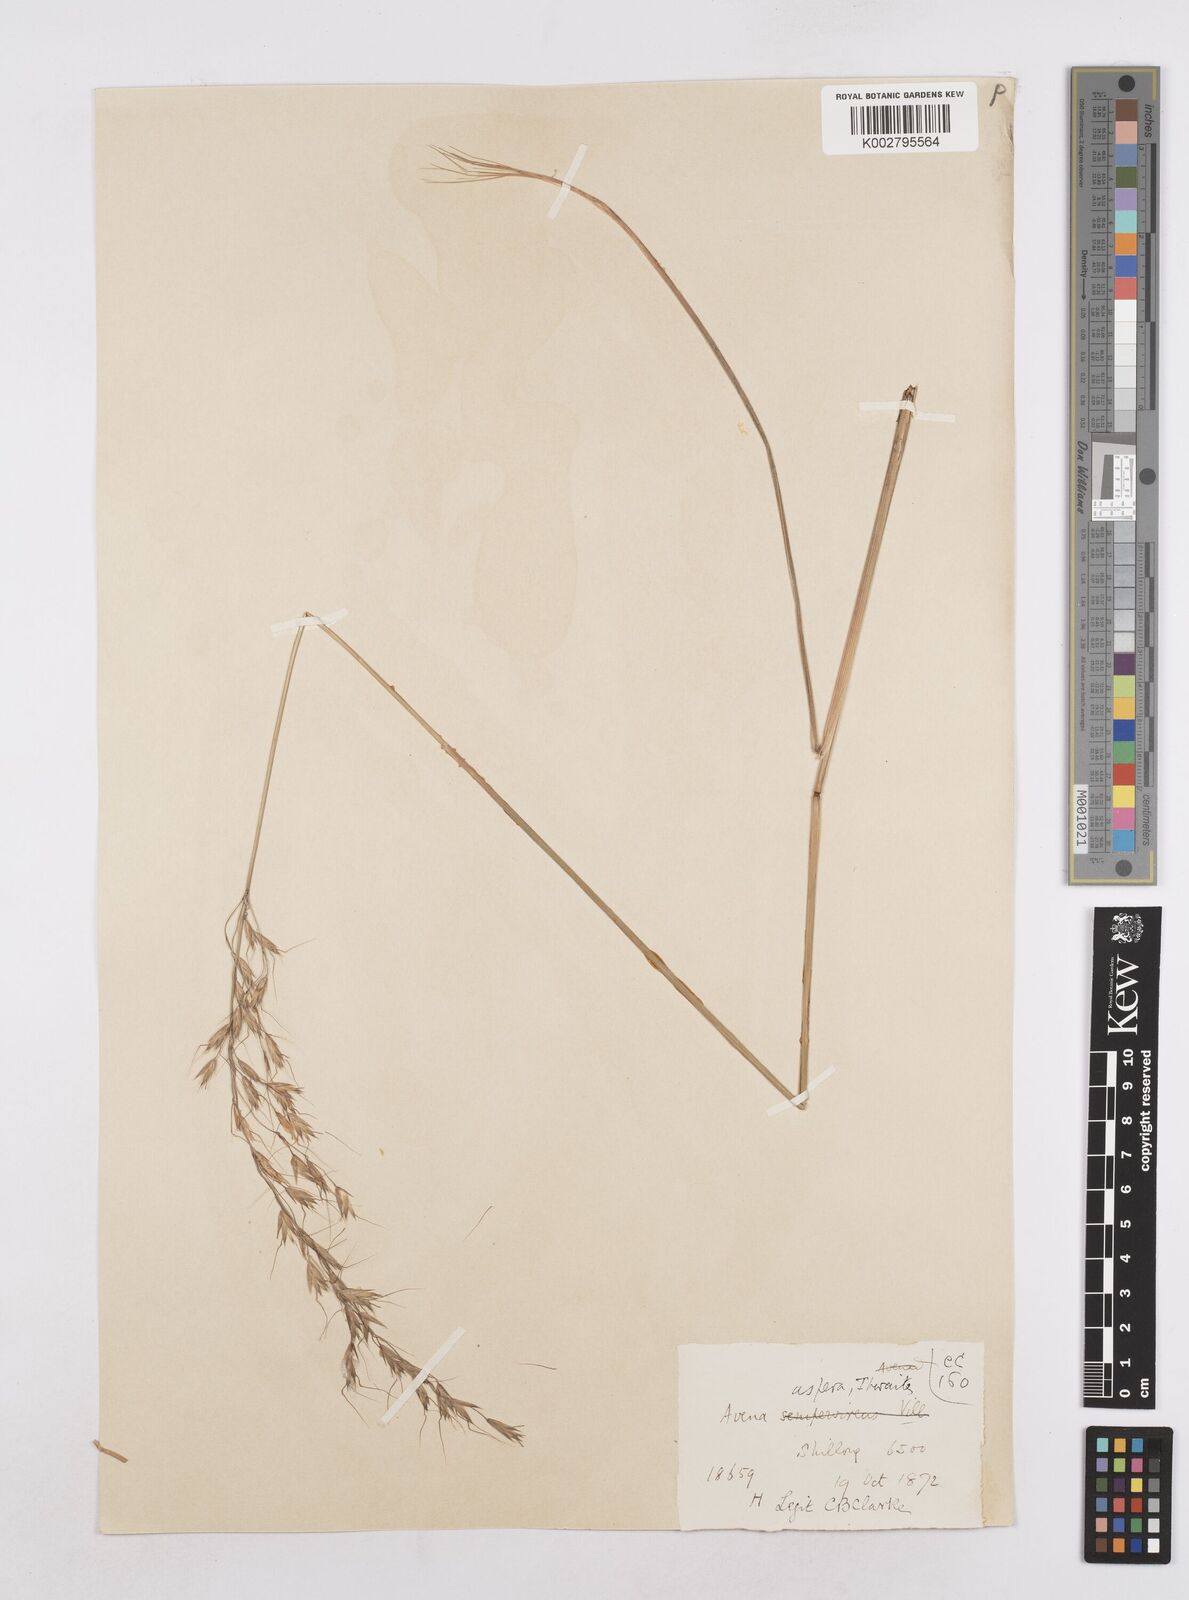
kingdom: Plantae
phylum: Tracheophyta
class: Liliopsida
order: Poales
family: Poaceae
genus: Trisetopsis
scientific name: Trisetopsis junghuhnii
